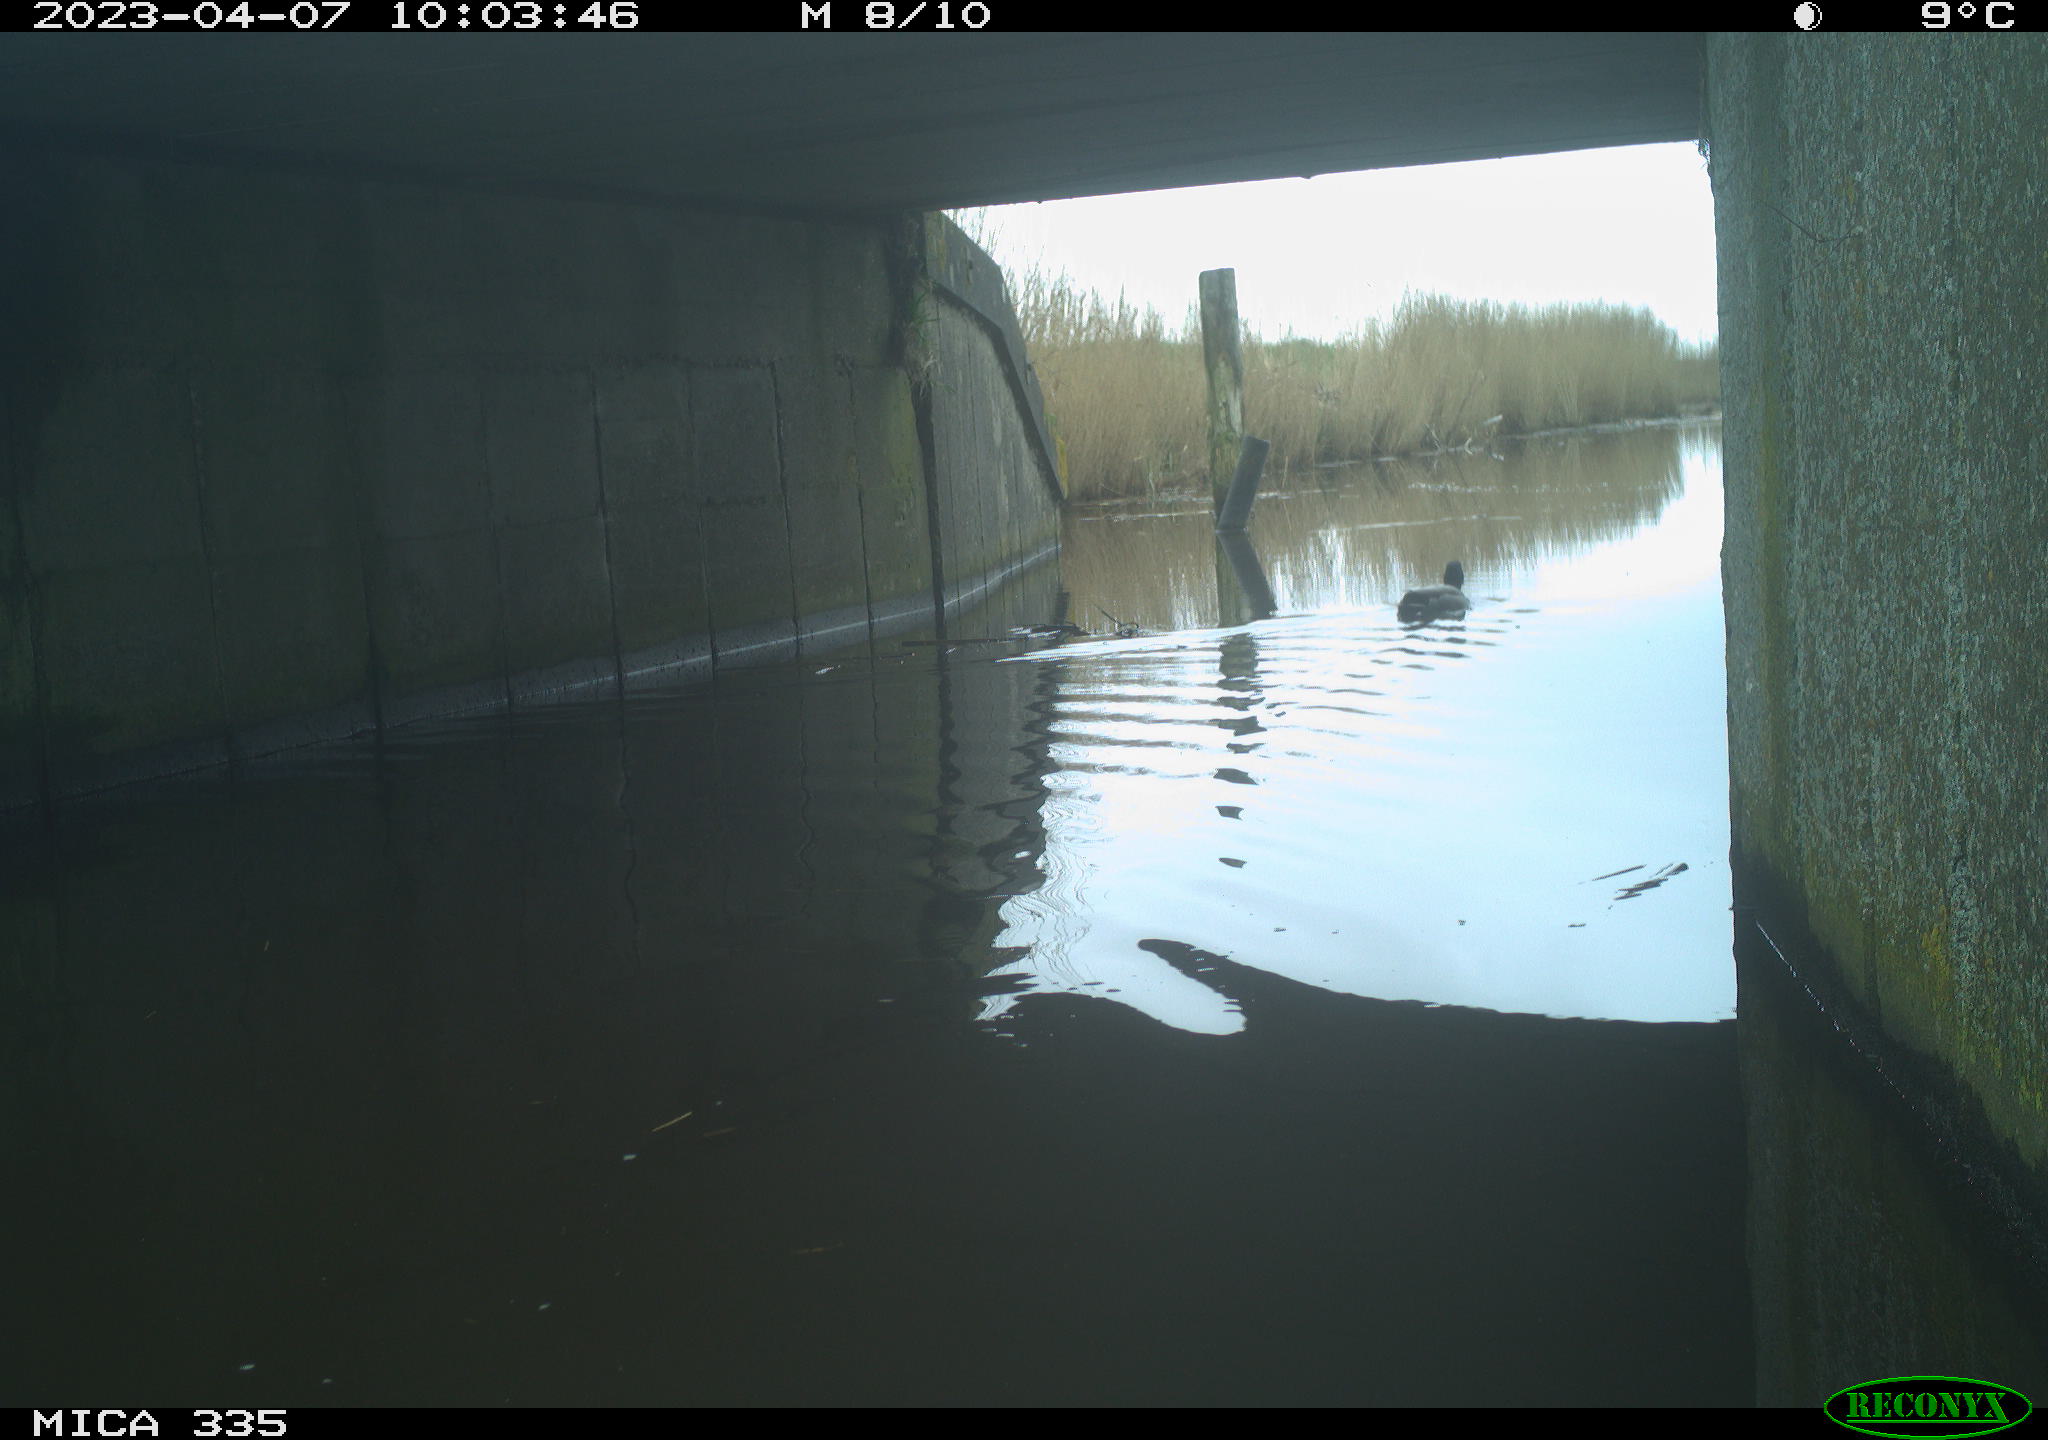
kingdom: Animalia
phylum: Chordata
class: Aves
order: Anseriformes
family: Anatidae
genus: Anas
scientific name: Anas
